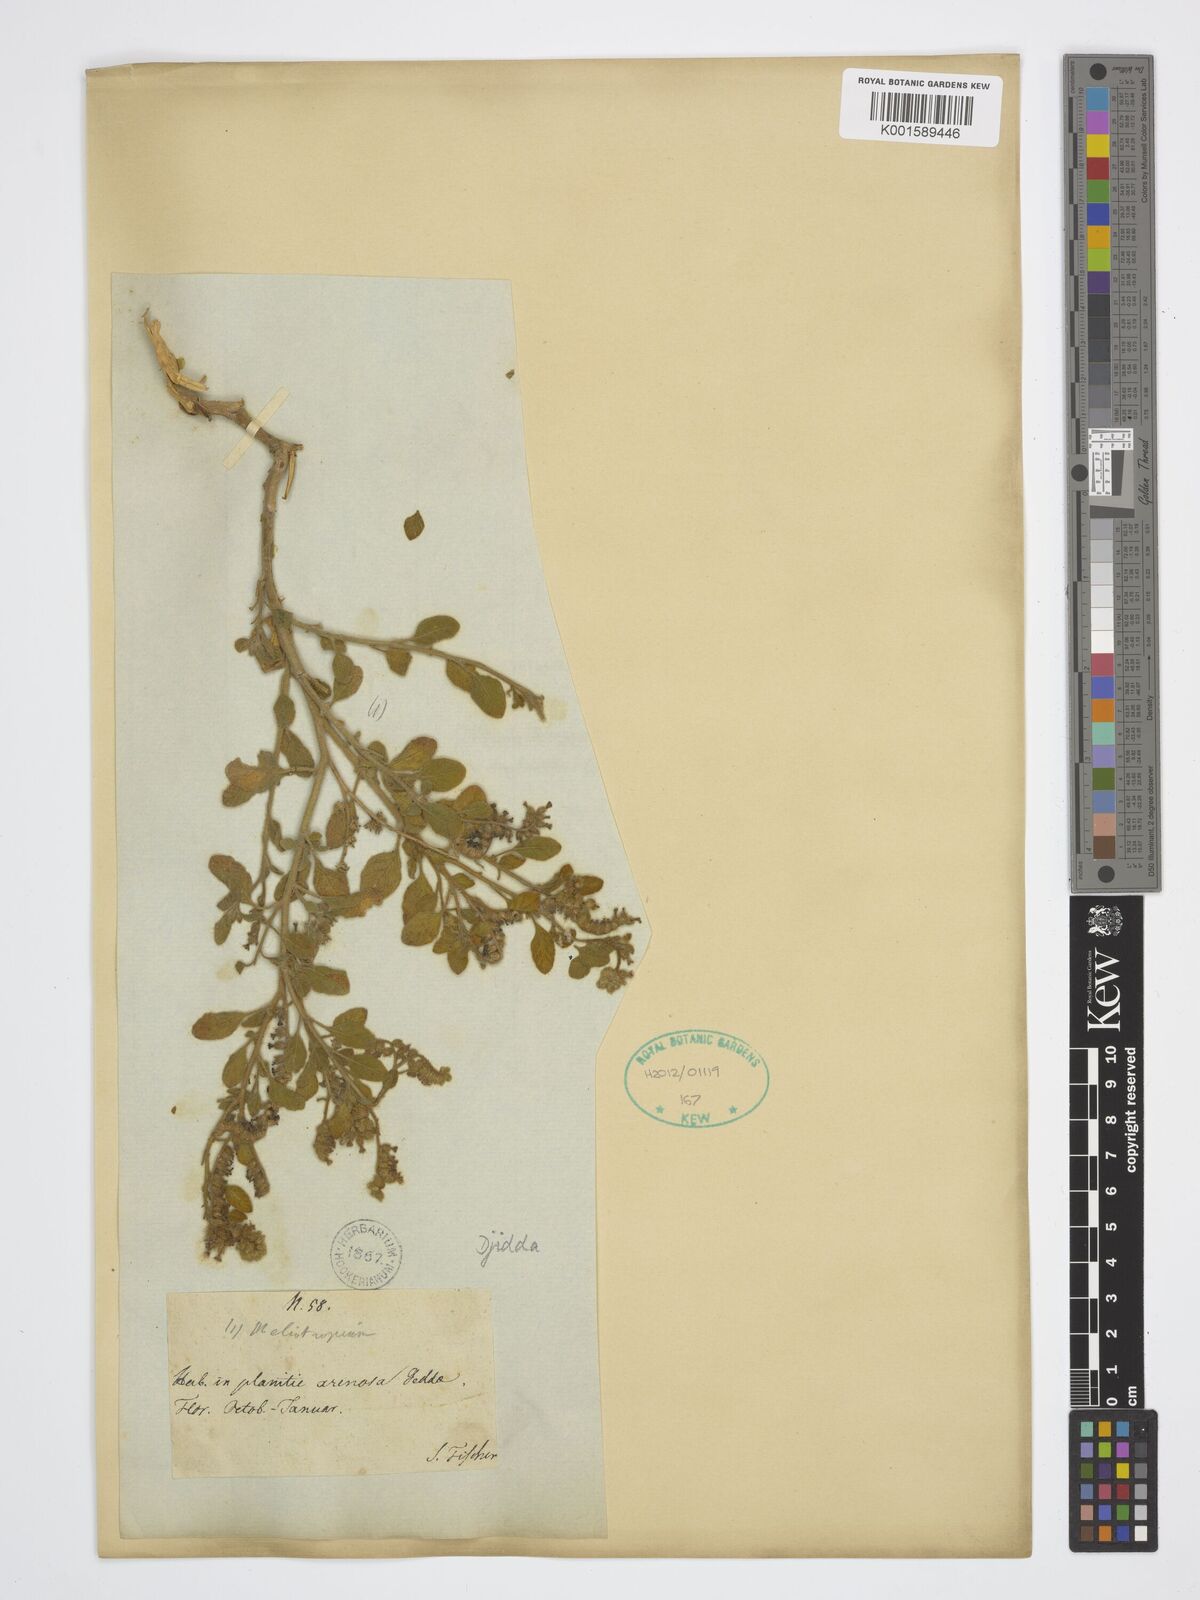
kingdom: Plantae
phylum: Tracheophyta
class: Magnoliopsida
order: Boraginales
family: Heliotropiaceae
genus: Heliotropium
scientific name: Heliotropium
